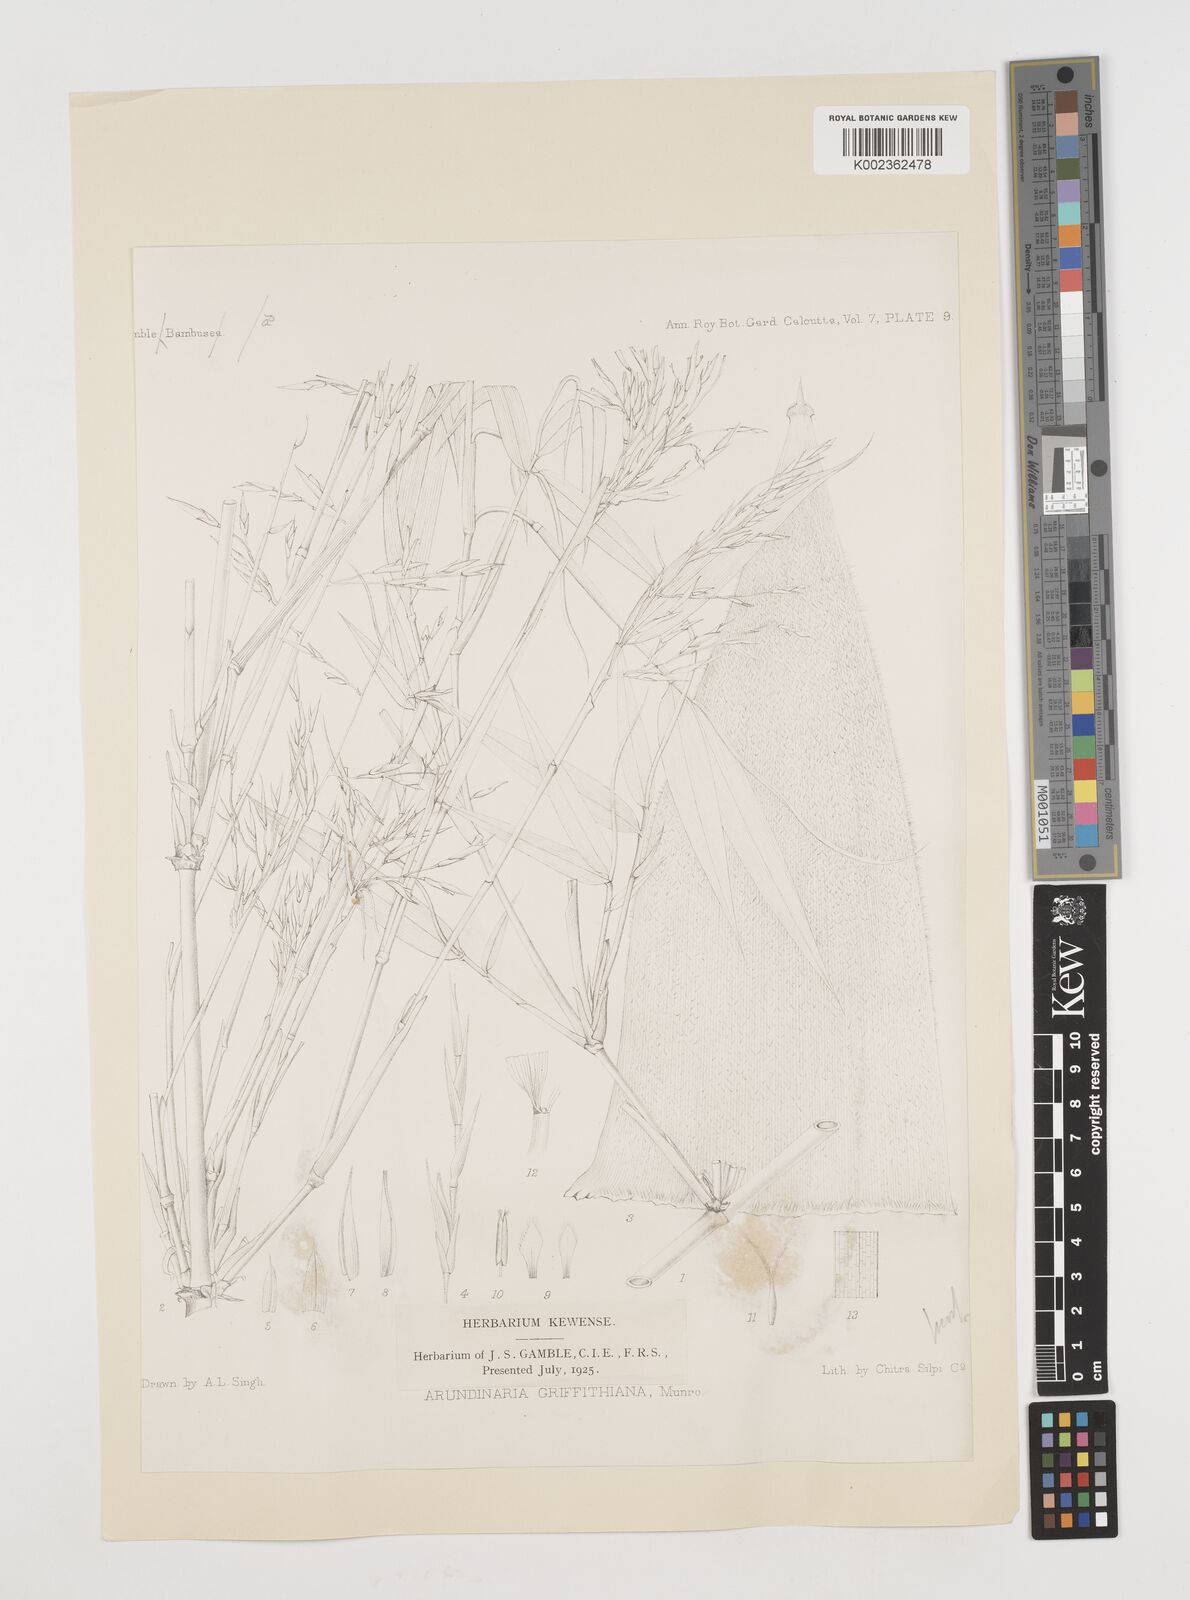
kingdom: Plantae
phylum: Tracheophyta
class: Liliopsida
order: Poales
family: Poaceae
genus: Chimonocalamus
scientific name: Chimonocalamus griffithianus
